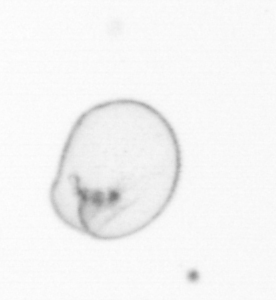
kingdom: Chromista
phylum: Myzozoa
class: Dinophyceae
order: Noctilucales
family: Noctilucaceae
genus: Noctiluca
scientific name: Noctiluca scintillans
